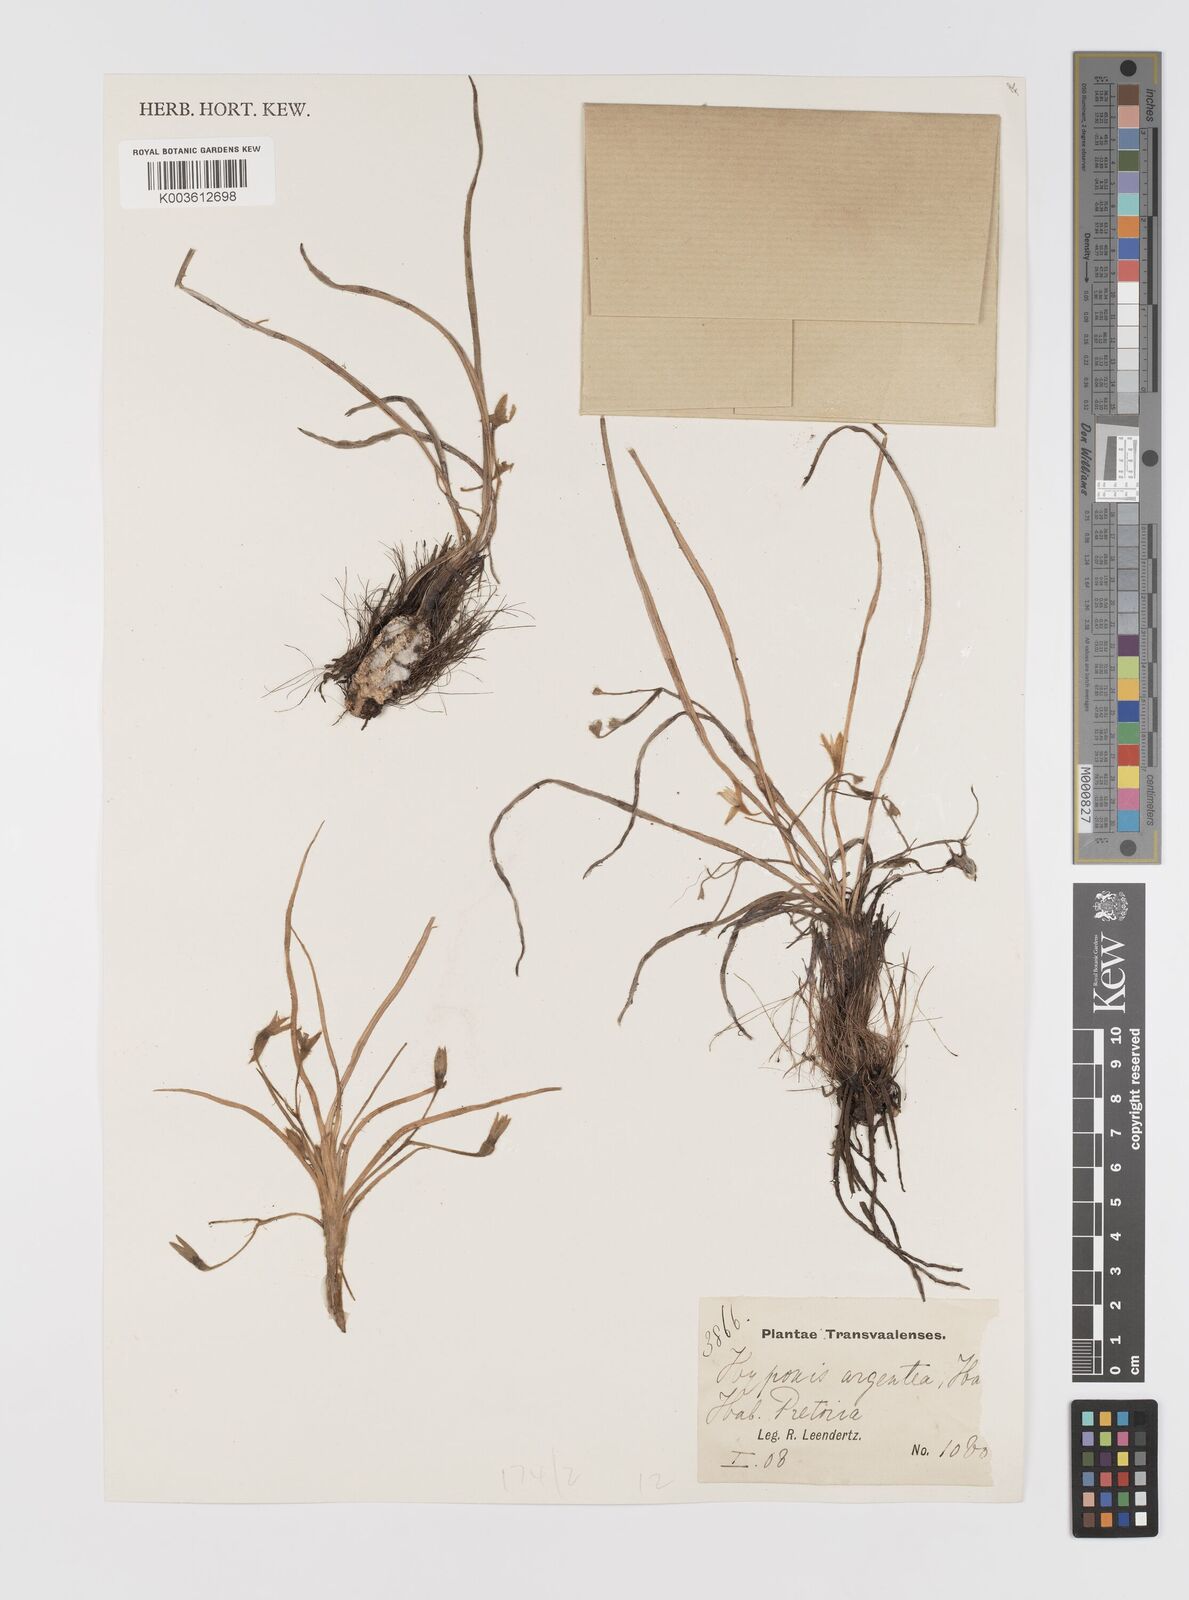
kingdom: Plantae
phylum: Tracheophyta
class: Liliopsida
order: Asparagales
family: Hypoxidaceae
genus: Hypoxis
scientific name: Hypoxis argentea
